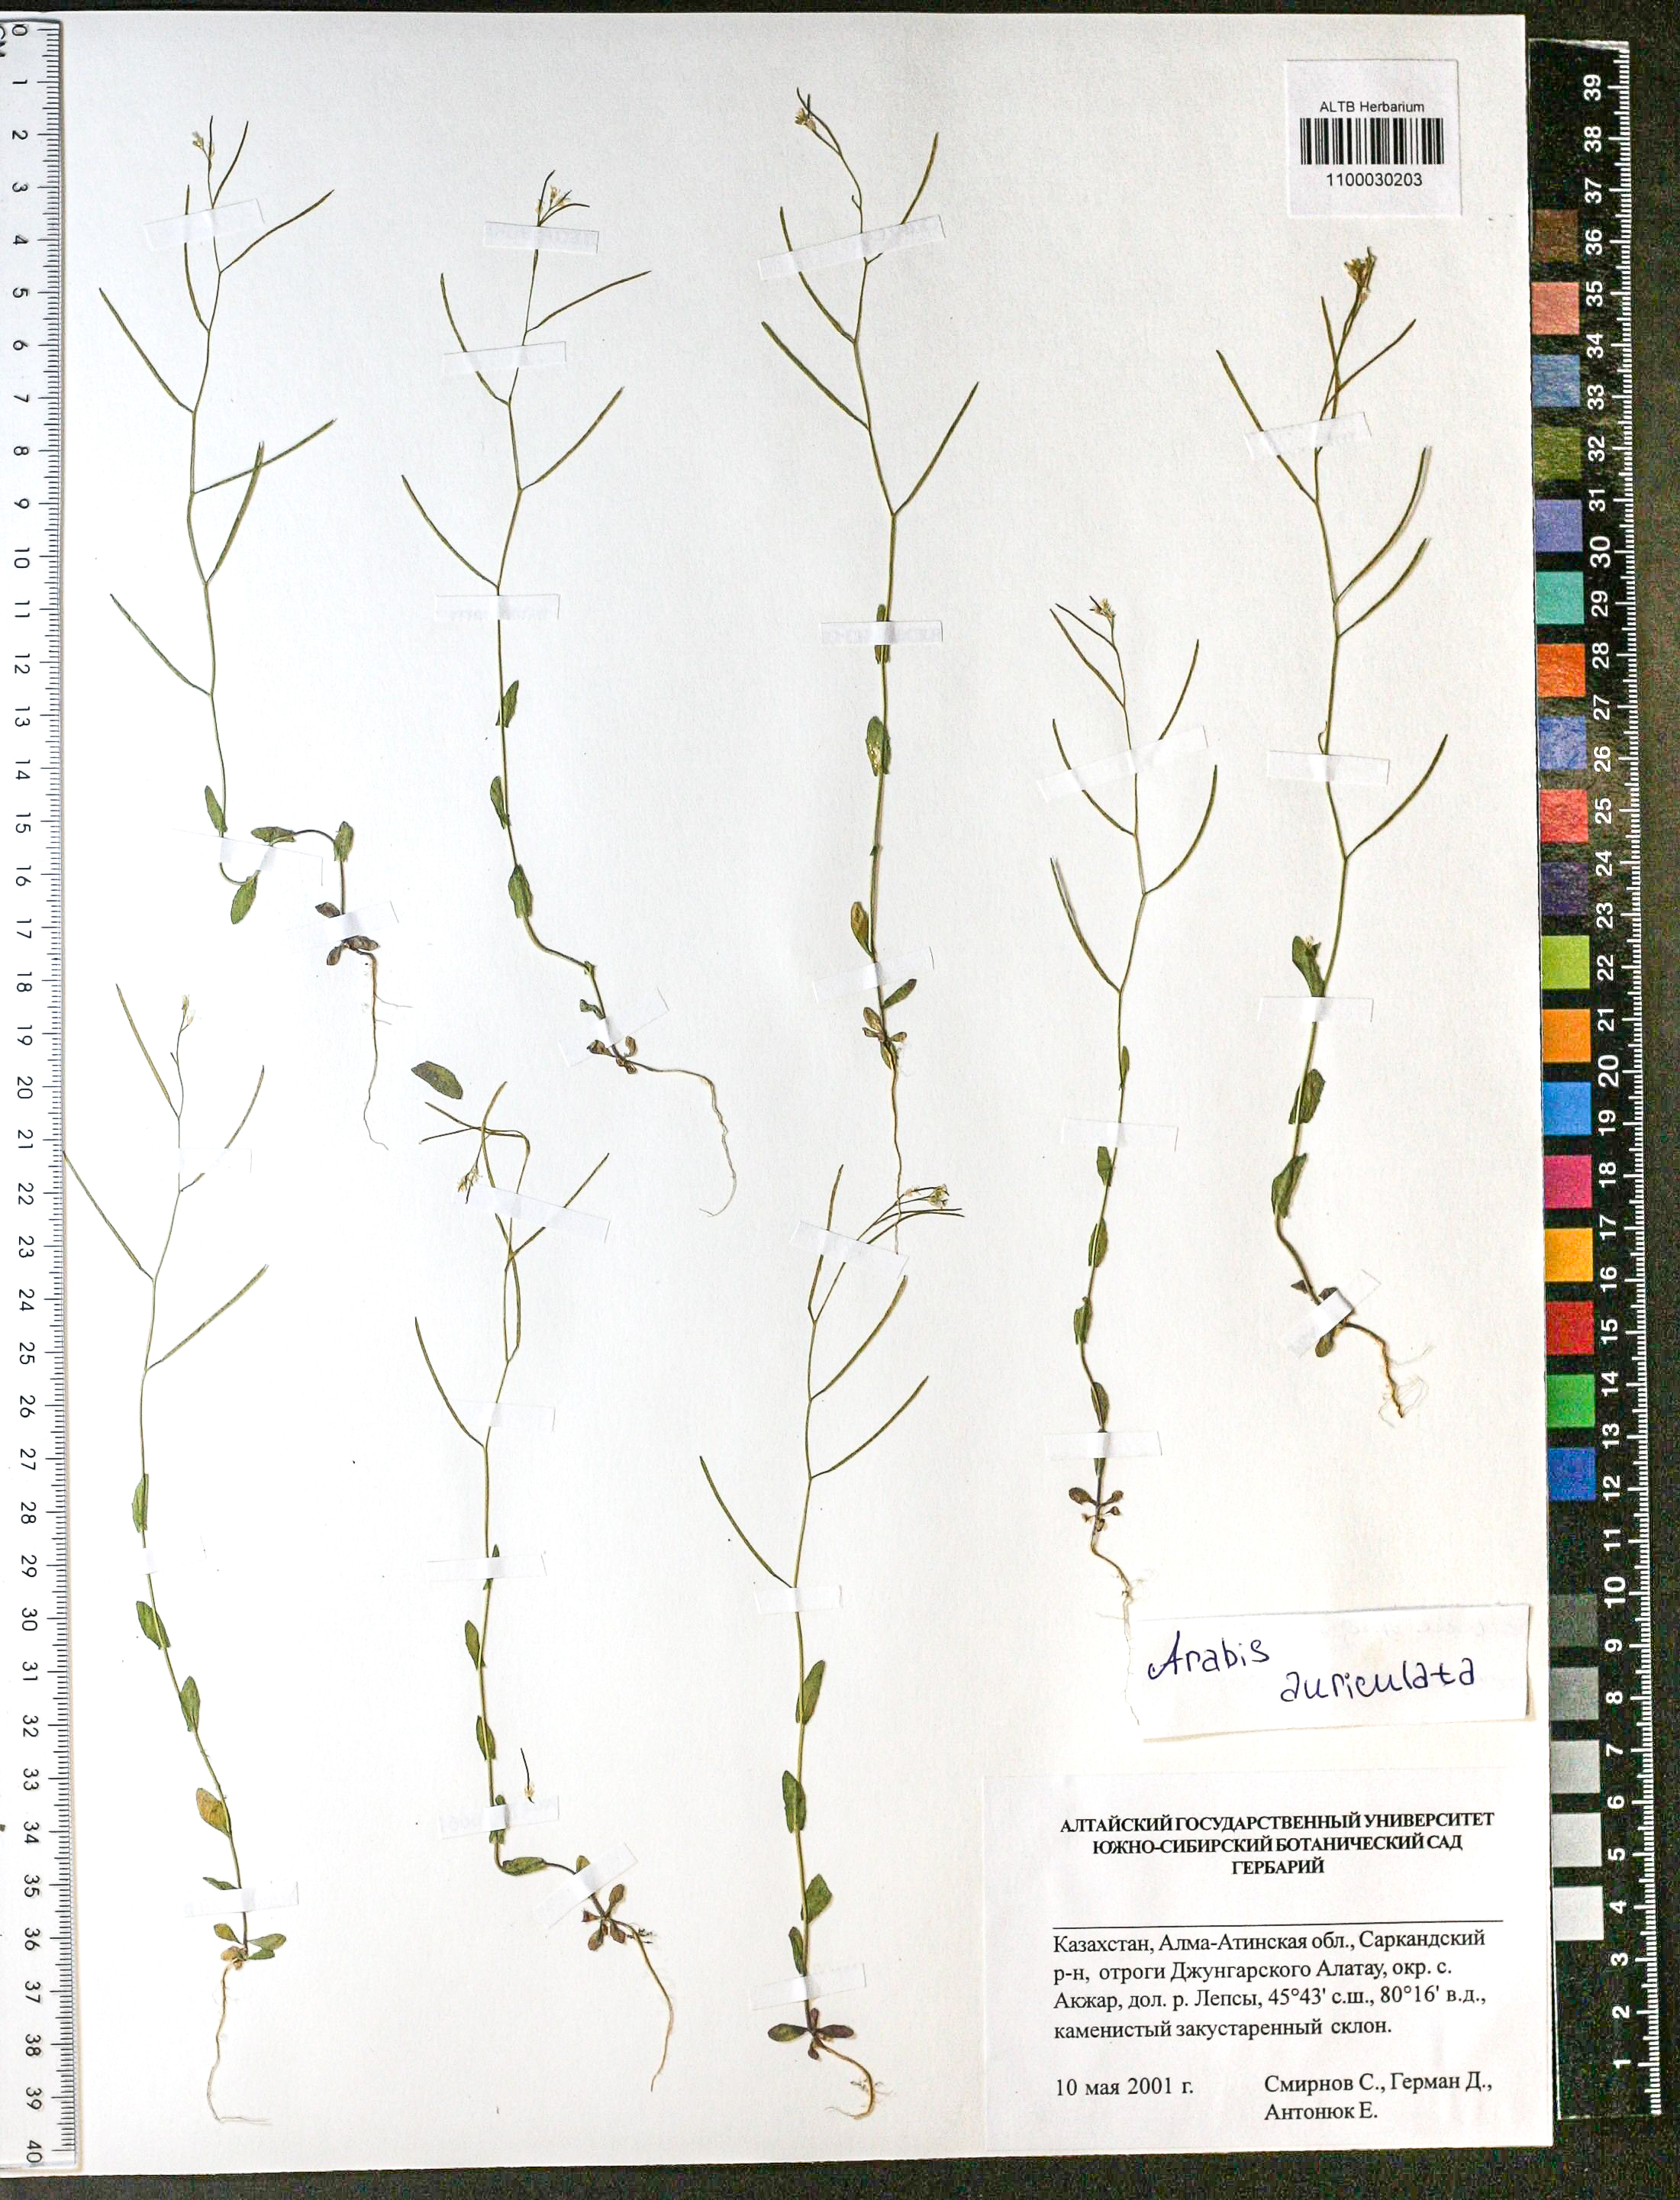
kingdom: Plantae
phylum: Tracheophyta
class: Magnoliopsida
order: Brassicales
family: Brassicaceae
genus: Arabis
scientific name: Arabis auriculata
